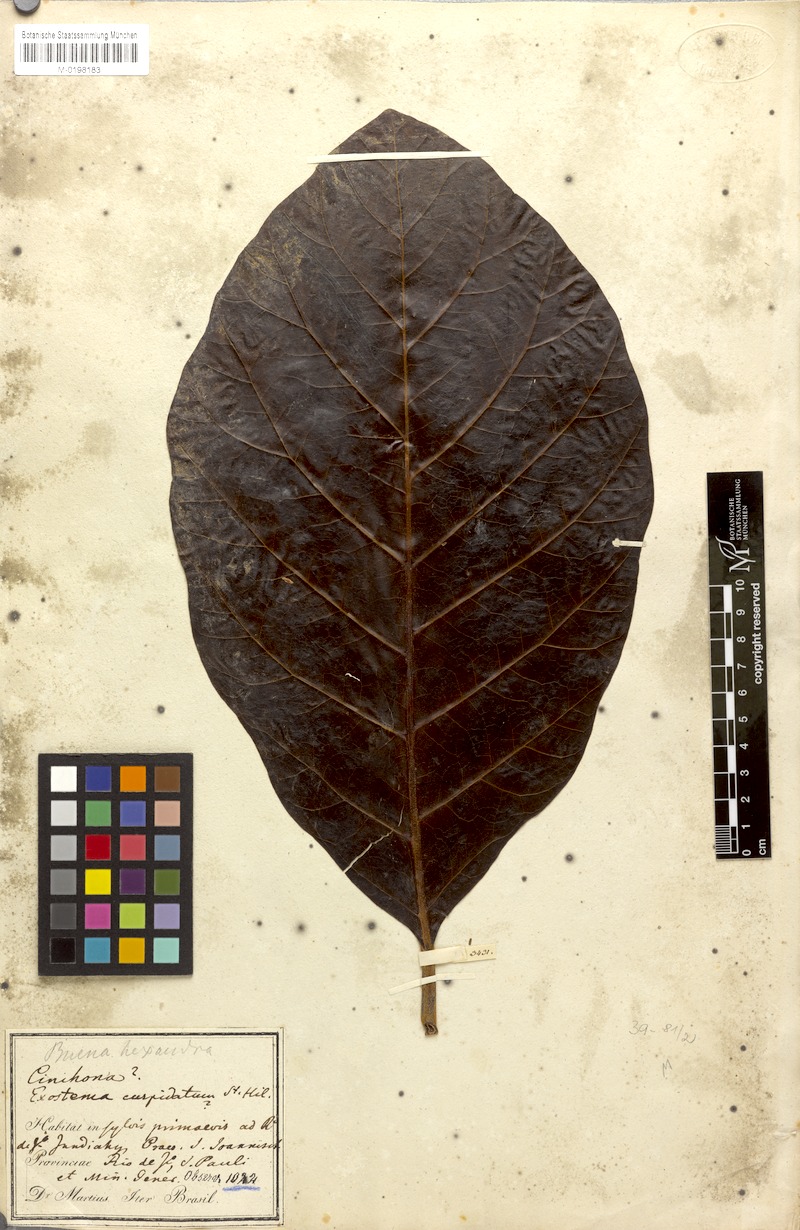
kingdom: Plantae
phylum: Tracheophyta
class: Magnoliopsida
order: Gentianales
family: Rubiaceae
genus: Ladenbergia
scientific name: Ladenbergia hexandra
